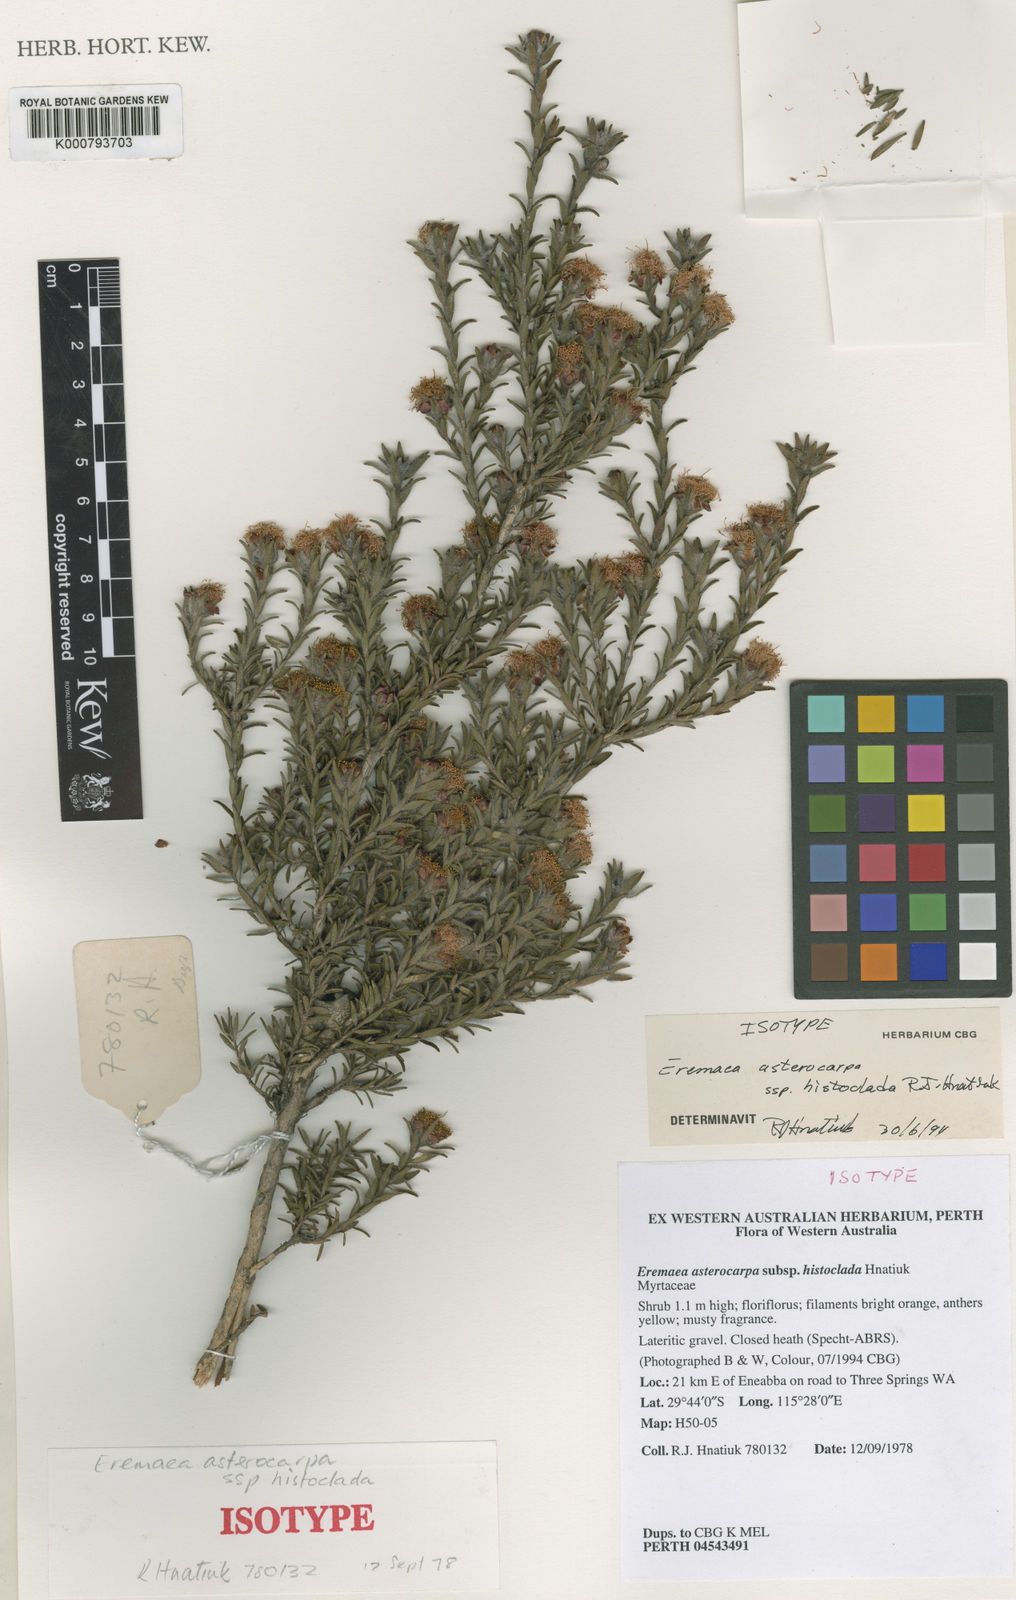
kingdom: Plantae
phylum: Tracheophyta
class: Magnoliopsida
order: Myrtales
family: Myrtaceae
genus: Melaleuca
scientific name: Melaleuca asterocarpa
